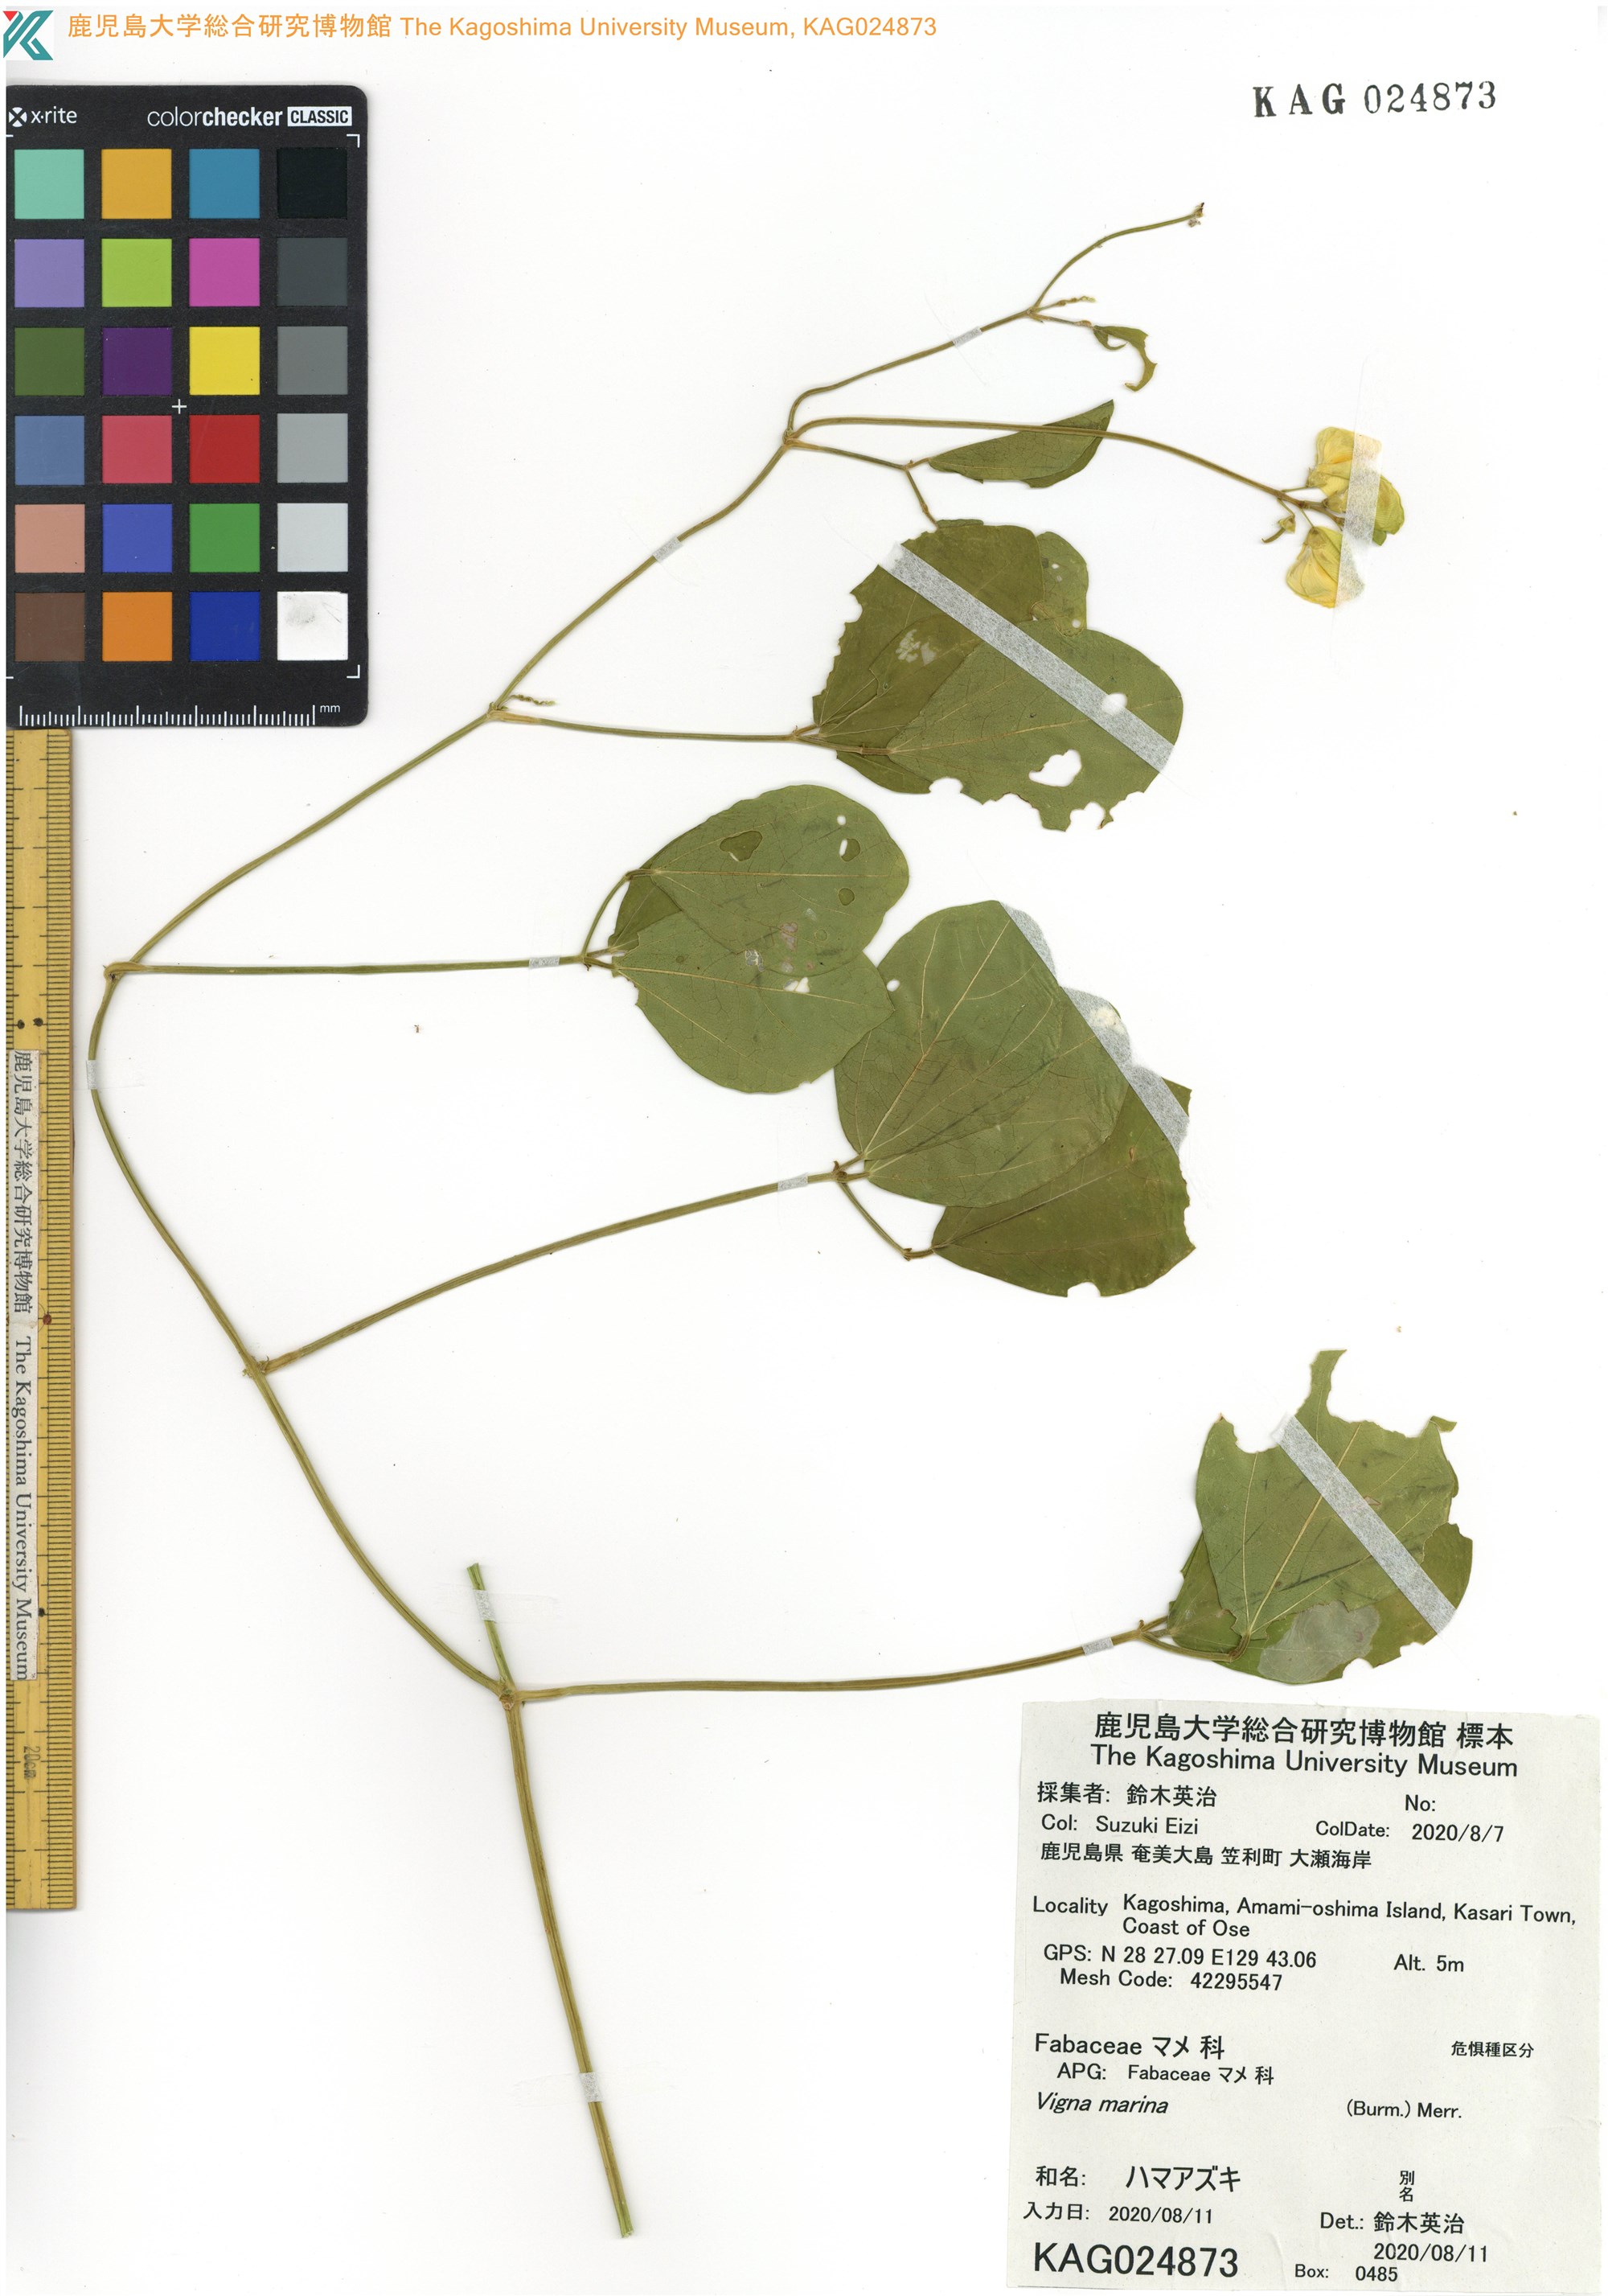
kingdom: Plantae
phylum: Tracheophyta
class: Magnoliopsida
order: Fabales
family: Fabaceae
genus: Vigna
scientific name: Vigna marina
